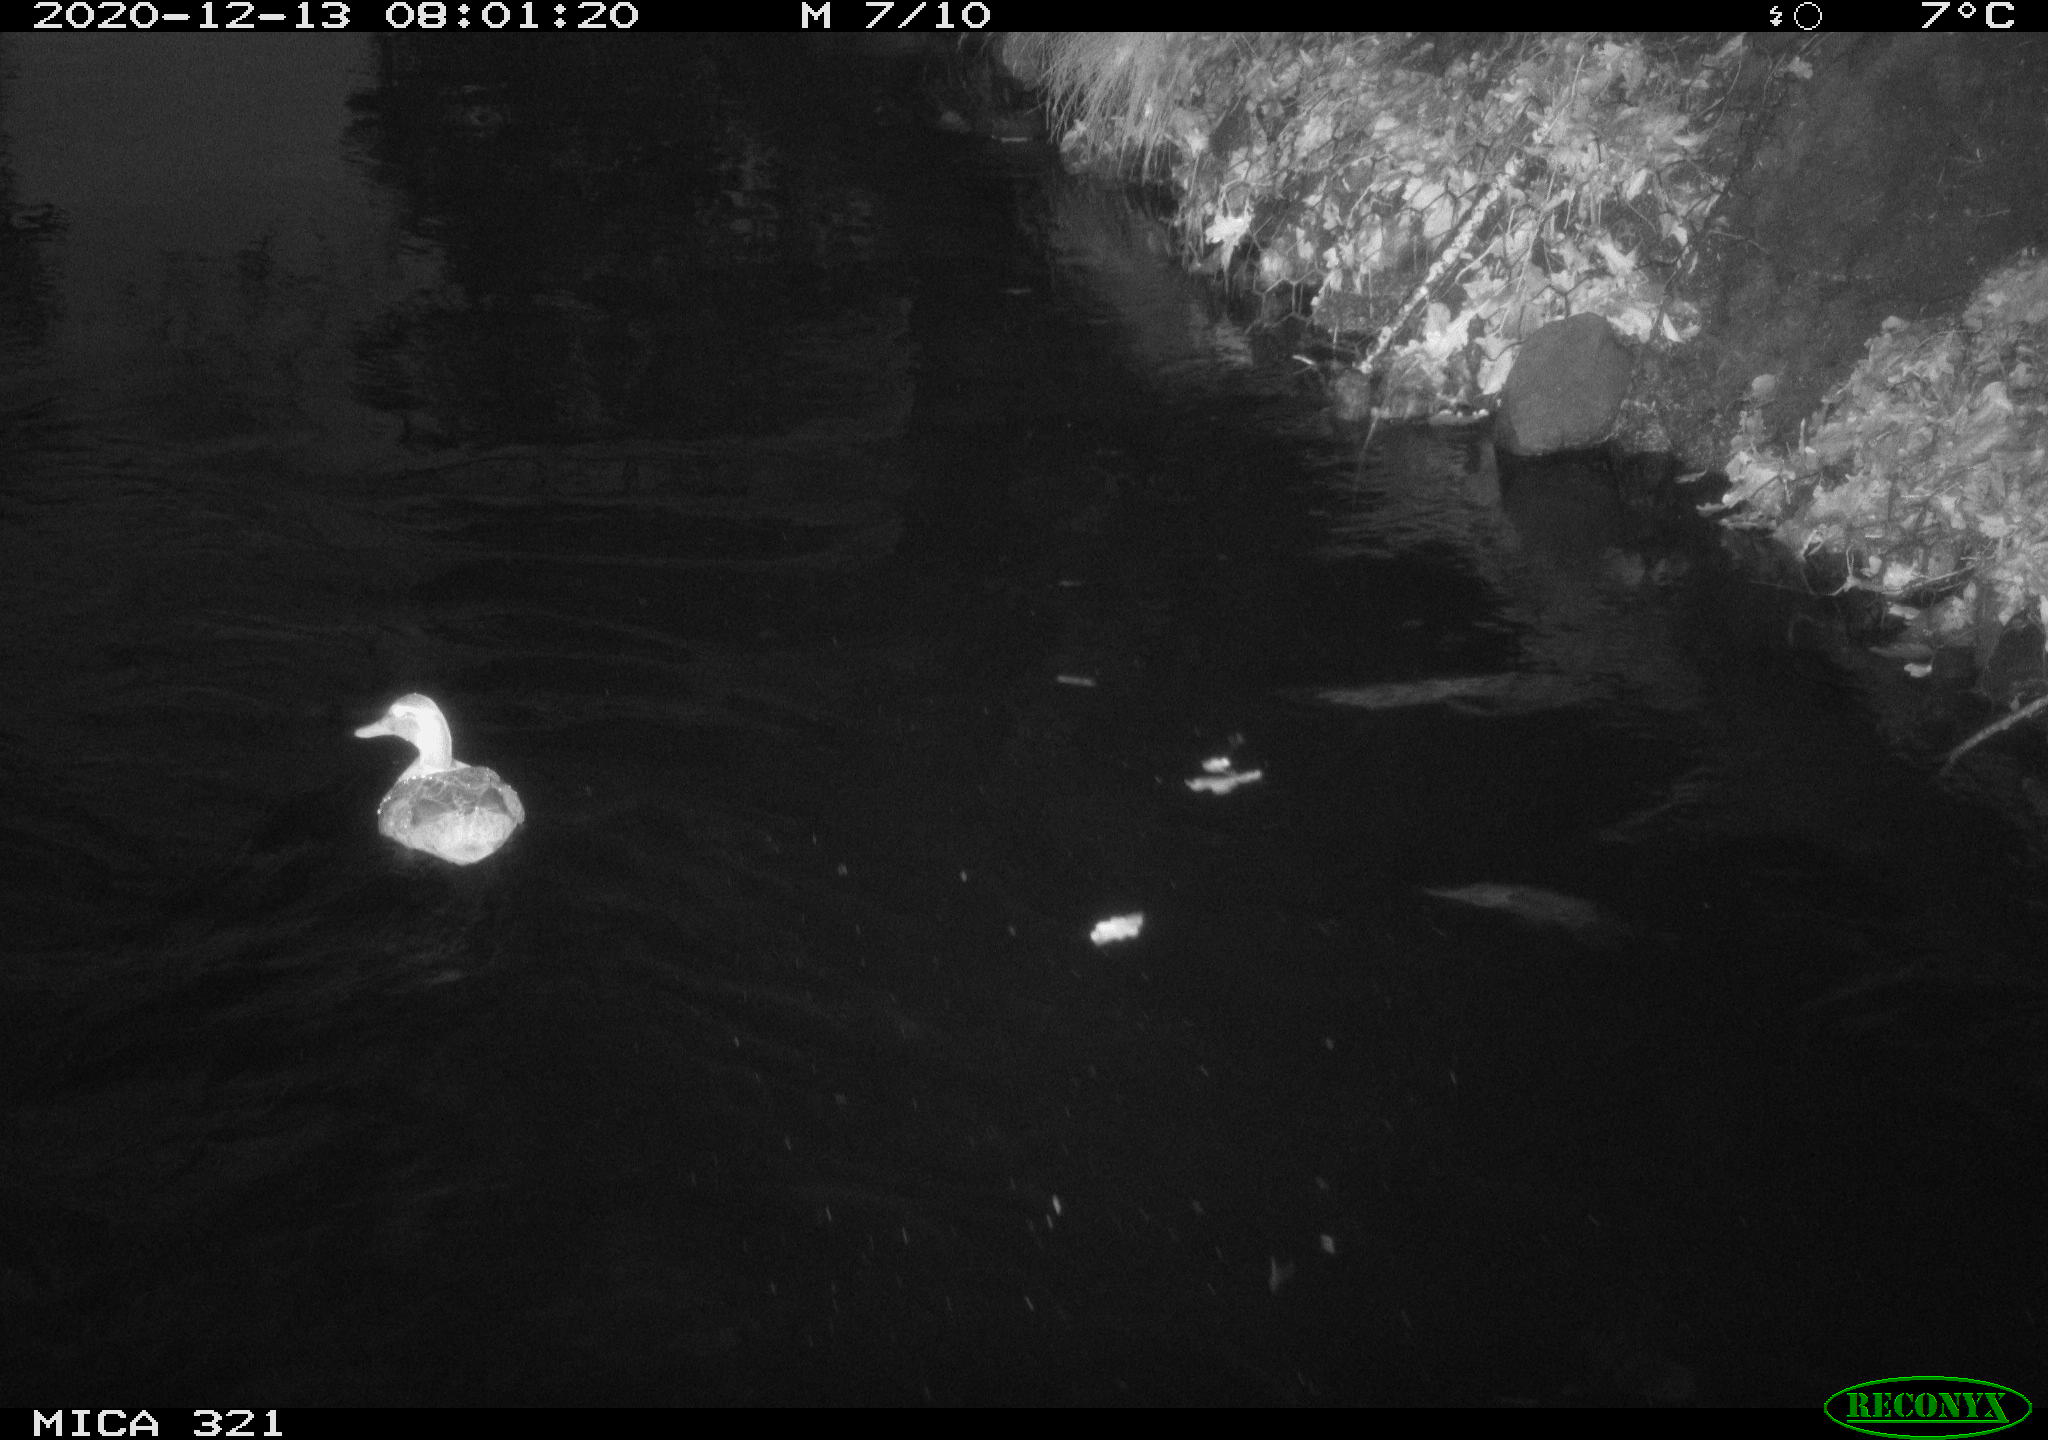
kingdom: Animalia
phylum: Chordata
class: Aves
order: Anseriformes
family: Anatidae
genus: Anas
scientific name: Anas platyrhynchos
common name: Mallard
